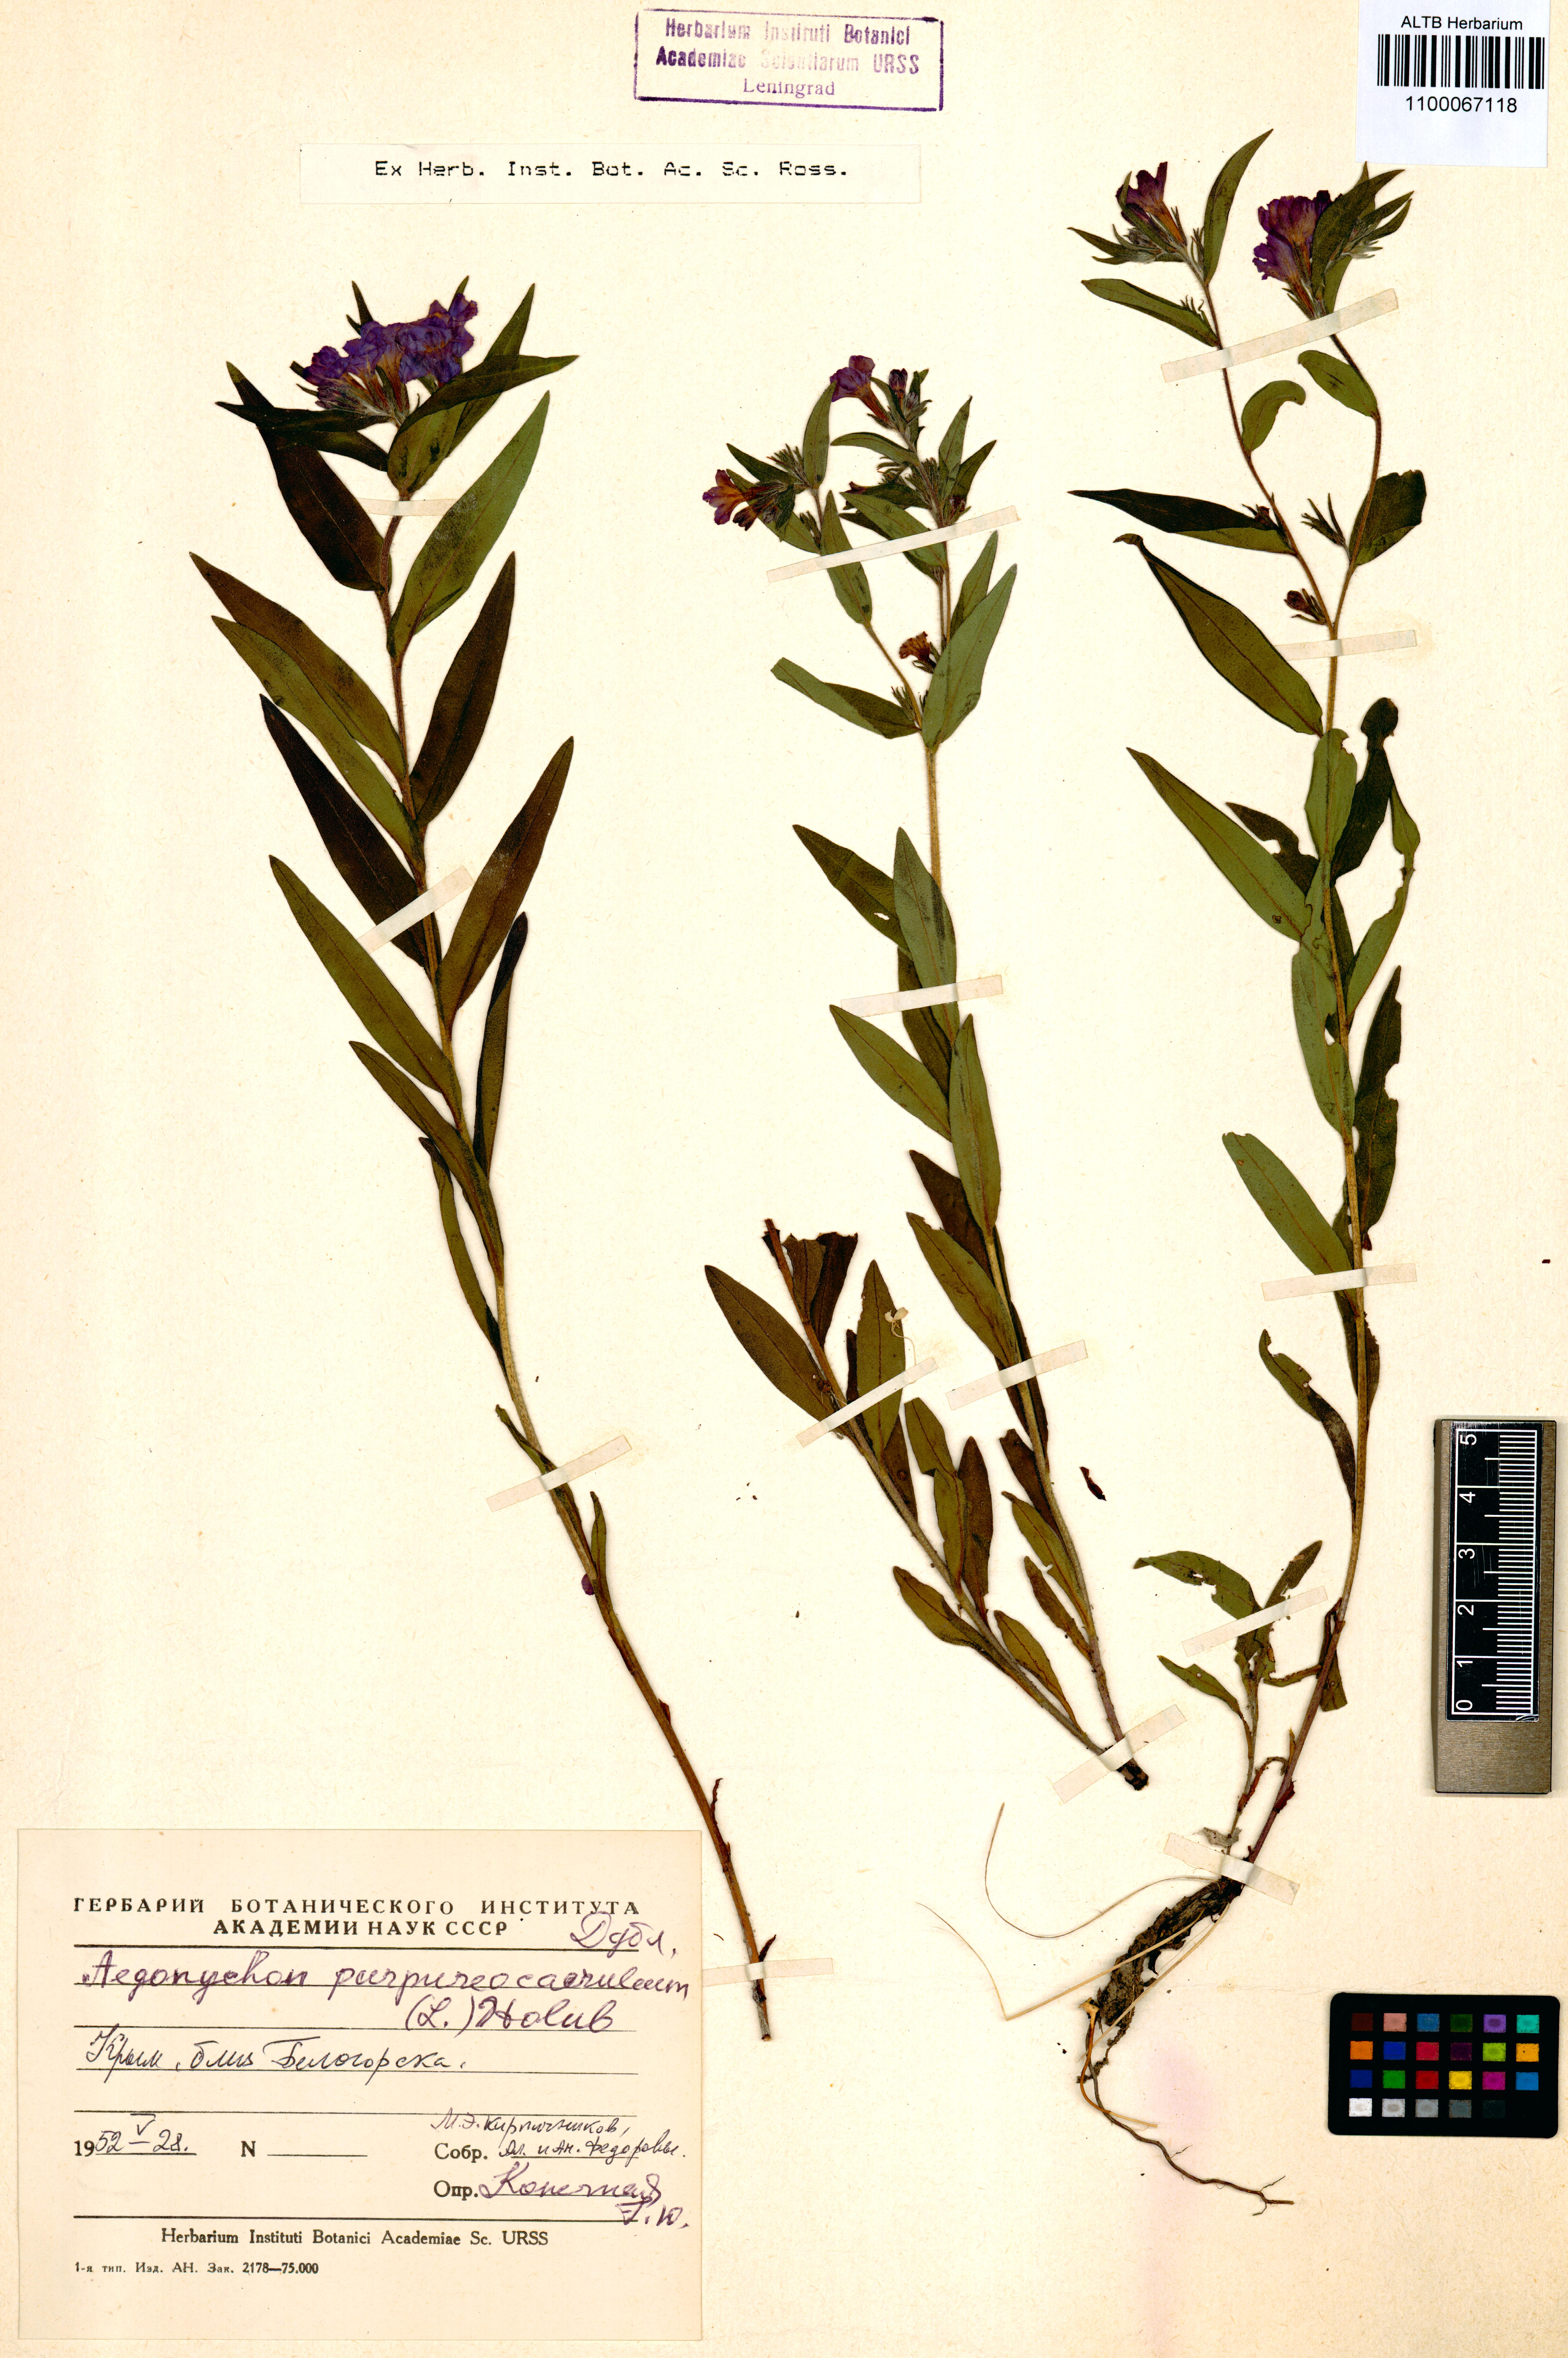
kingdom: Plantae
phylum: Tracheophyta
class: Magnoliopsida
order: Boraginales
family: Boraginaceae
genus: Aegonychon
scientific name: Aegonychon purpurocaeruleum
